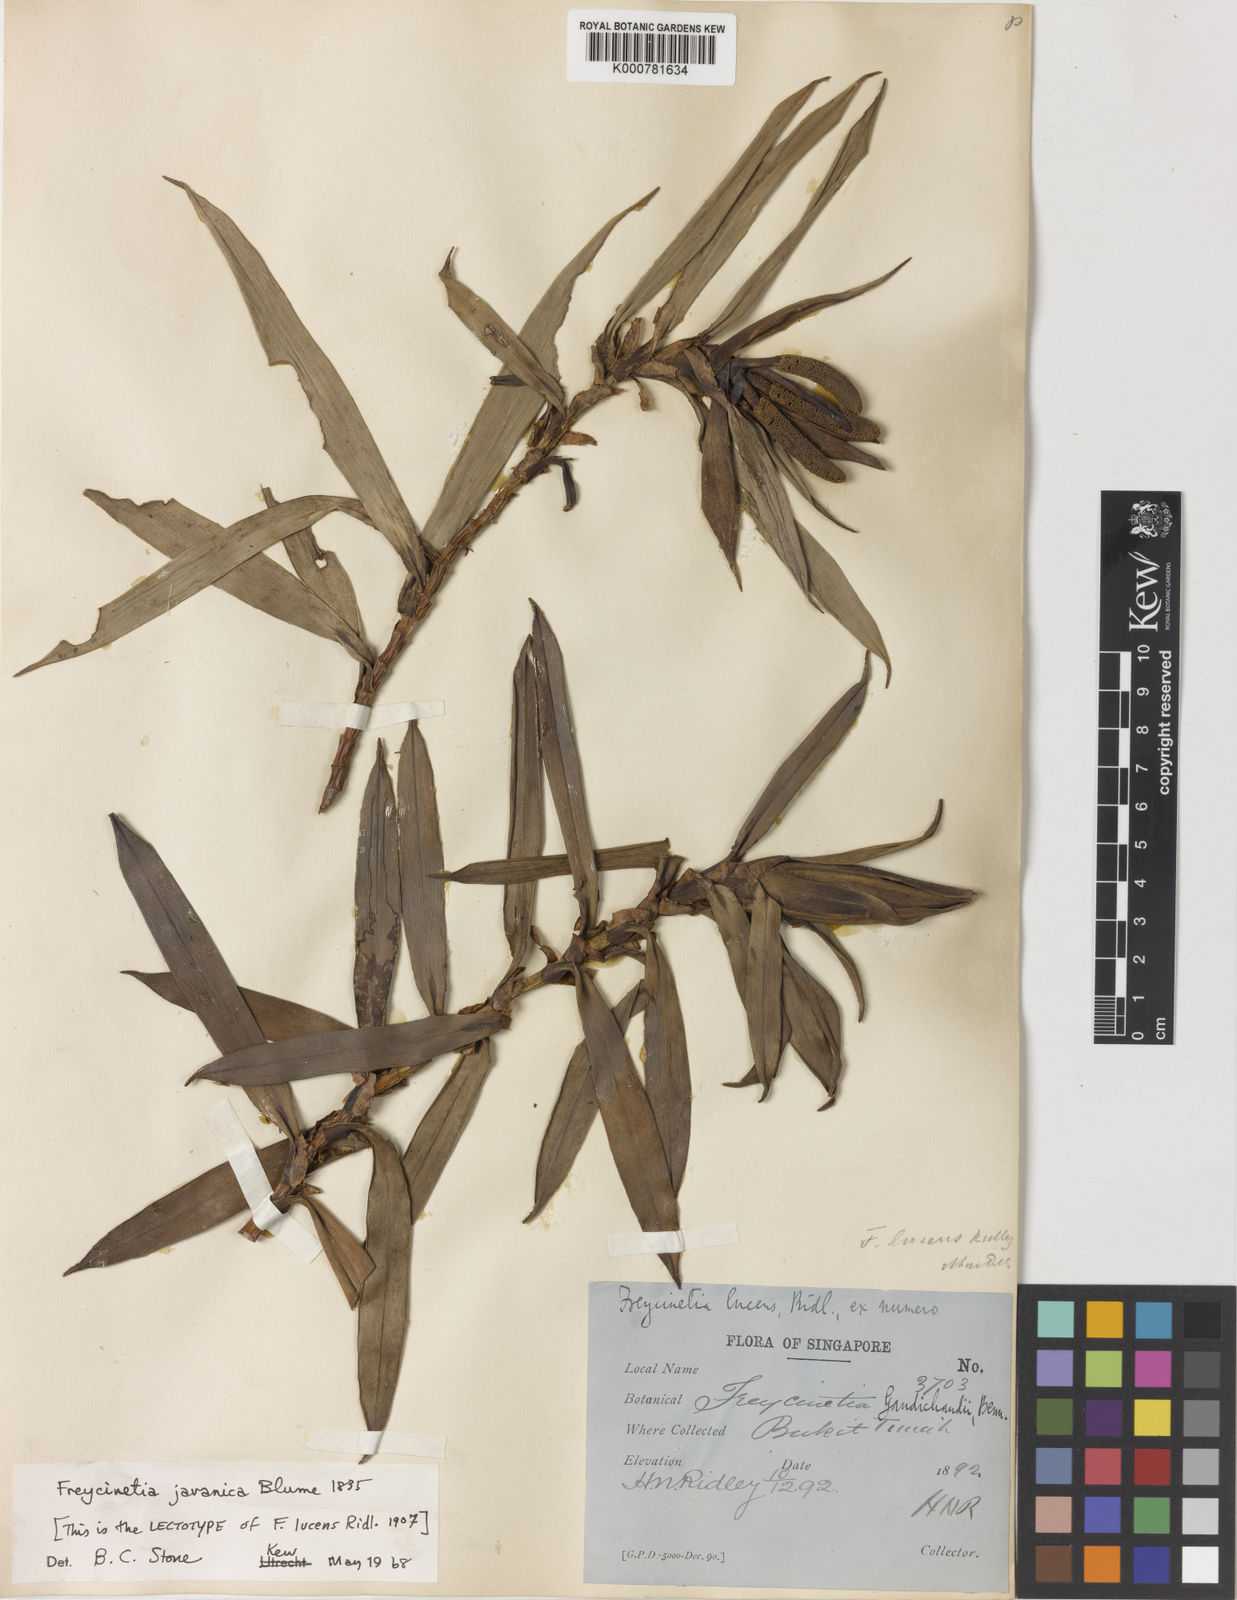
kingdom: Plantae
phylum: Tracheophyta
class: Liliopsida
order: Pandanales
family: Pandanaceae
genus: Freycinetia
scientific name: Freycinetia javanica
